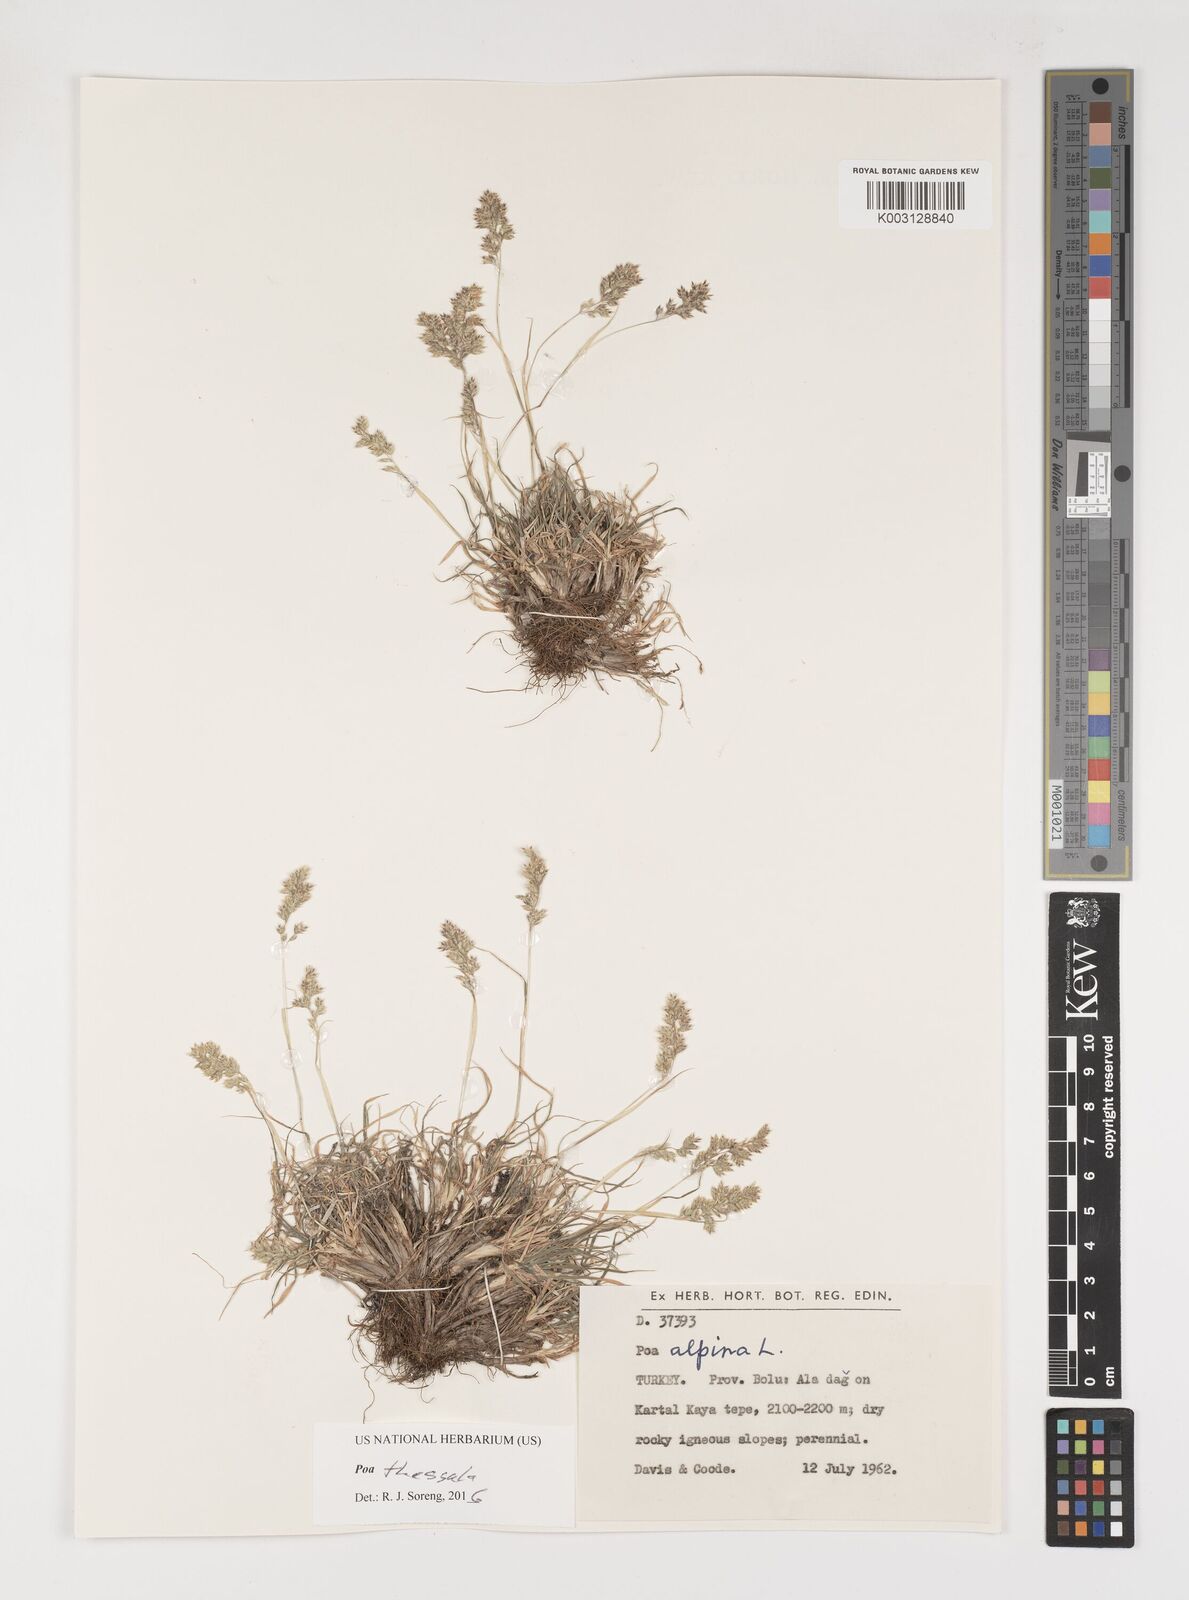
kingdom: Plantae
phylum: Tracheophyta
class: Liliopsida
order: Poales
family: Poaceae
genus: Poa
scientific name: Poa thessala
